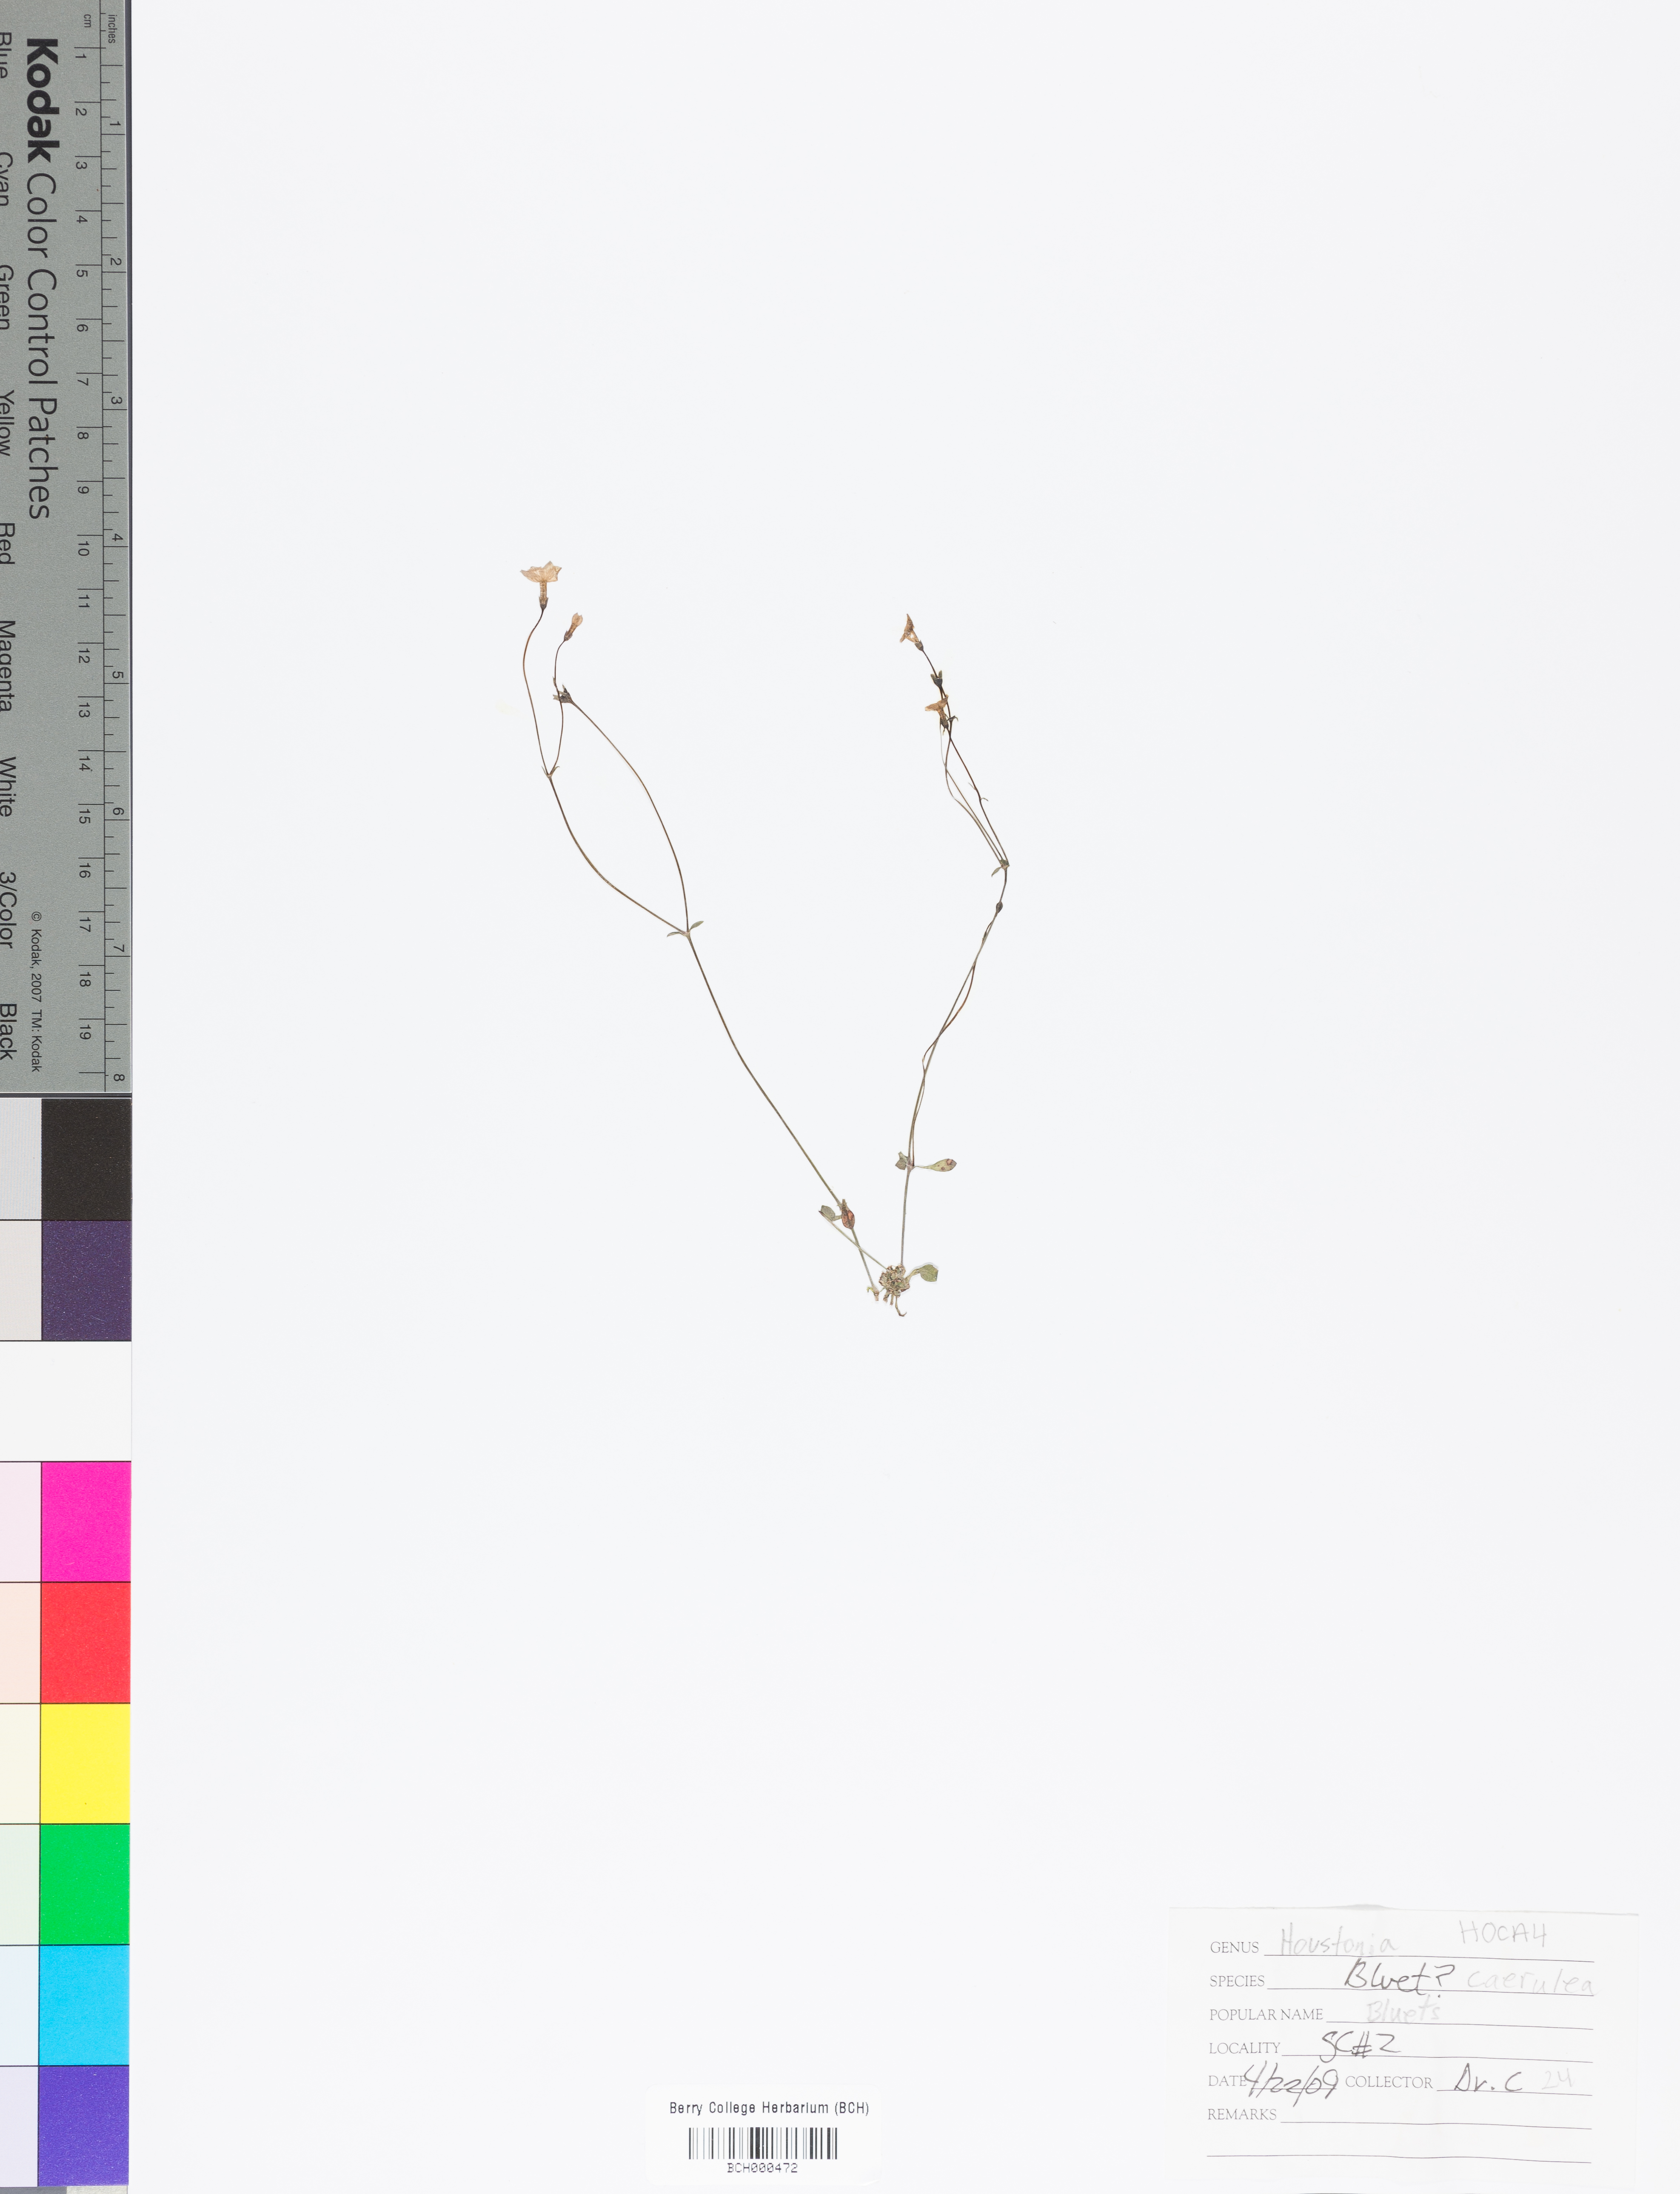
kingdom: Plantae
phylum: Tracheophyta
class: Magnoliopsida
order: Gentianales
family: Rubiaceae
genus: Houstonia
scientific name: Houstonia caerulea
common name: Bluets
